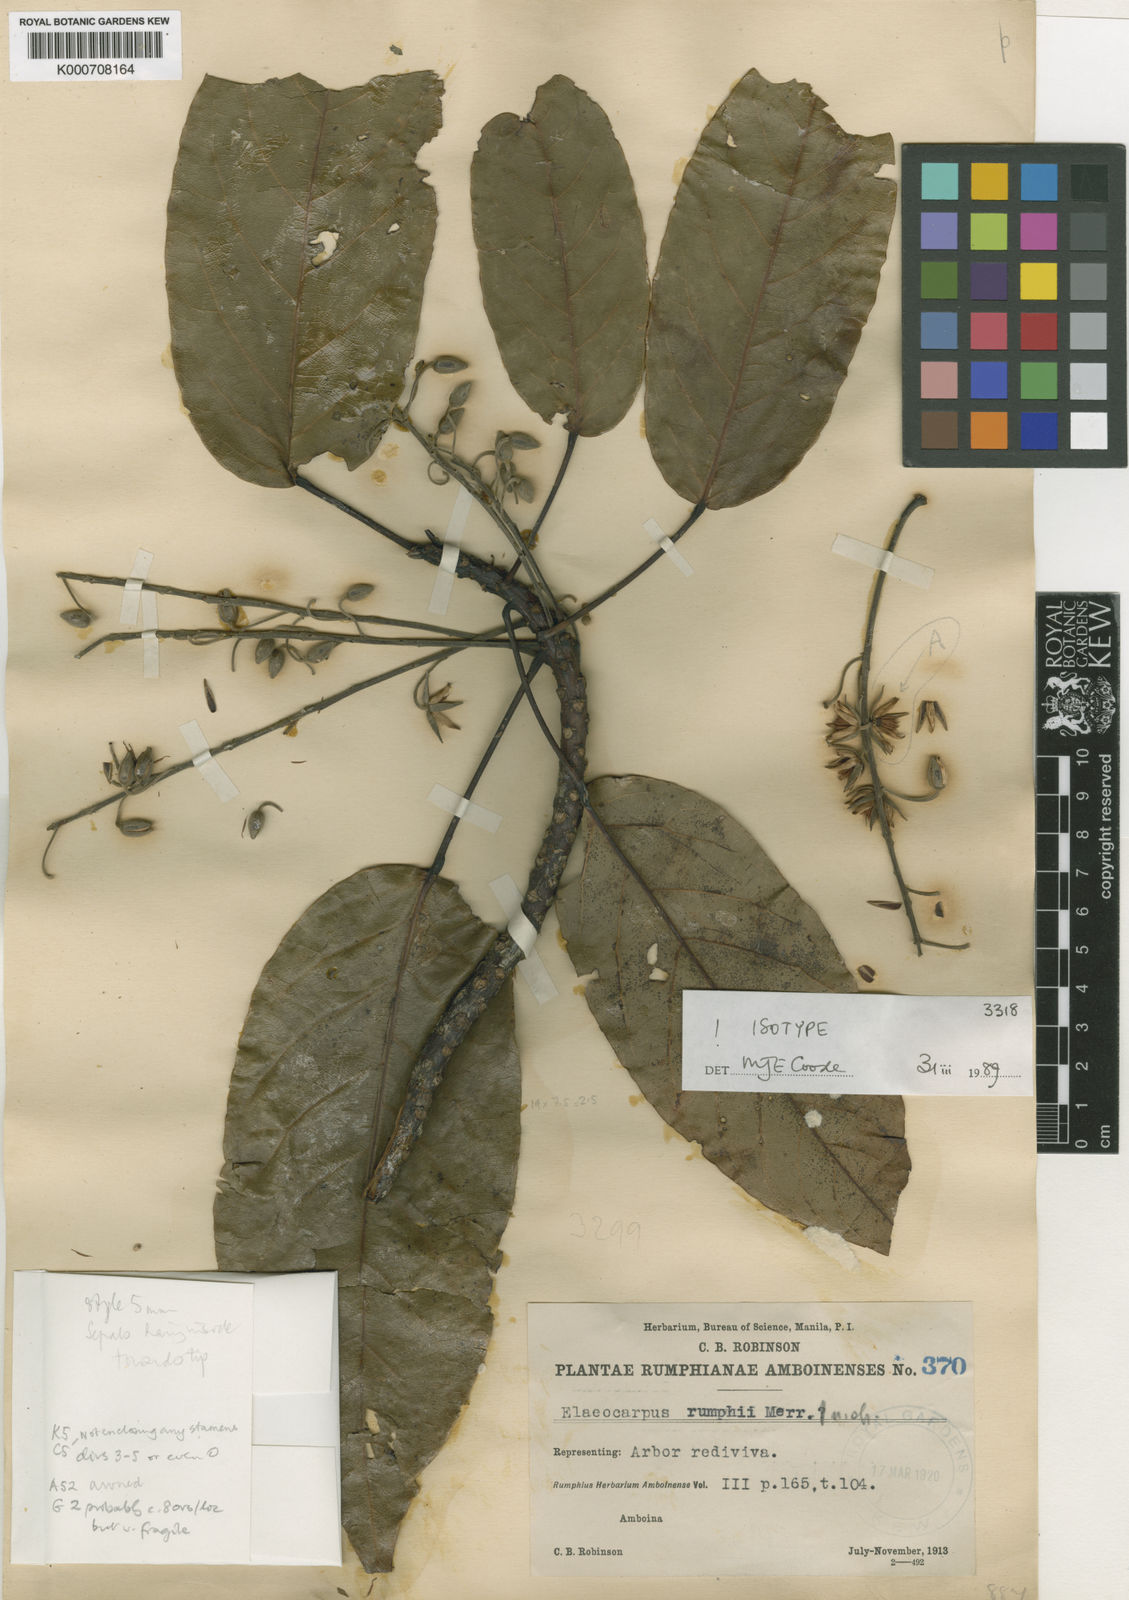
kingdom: Plantae
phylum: Tracheophyta
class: Magnoliopsida
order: Oxalidales
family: Elaeocarpaceae
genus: Elaeocarpus
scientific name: Elaeocarpus rumphii
